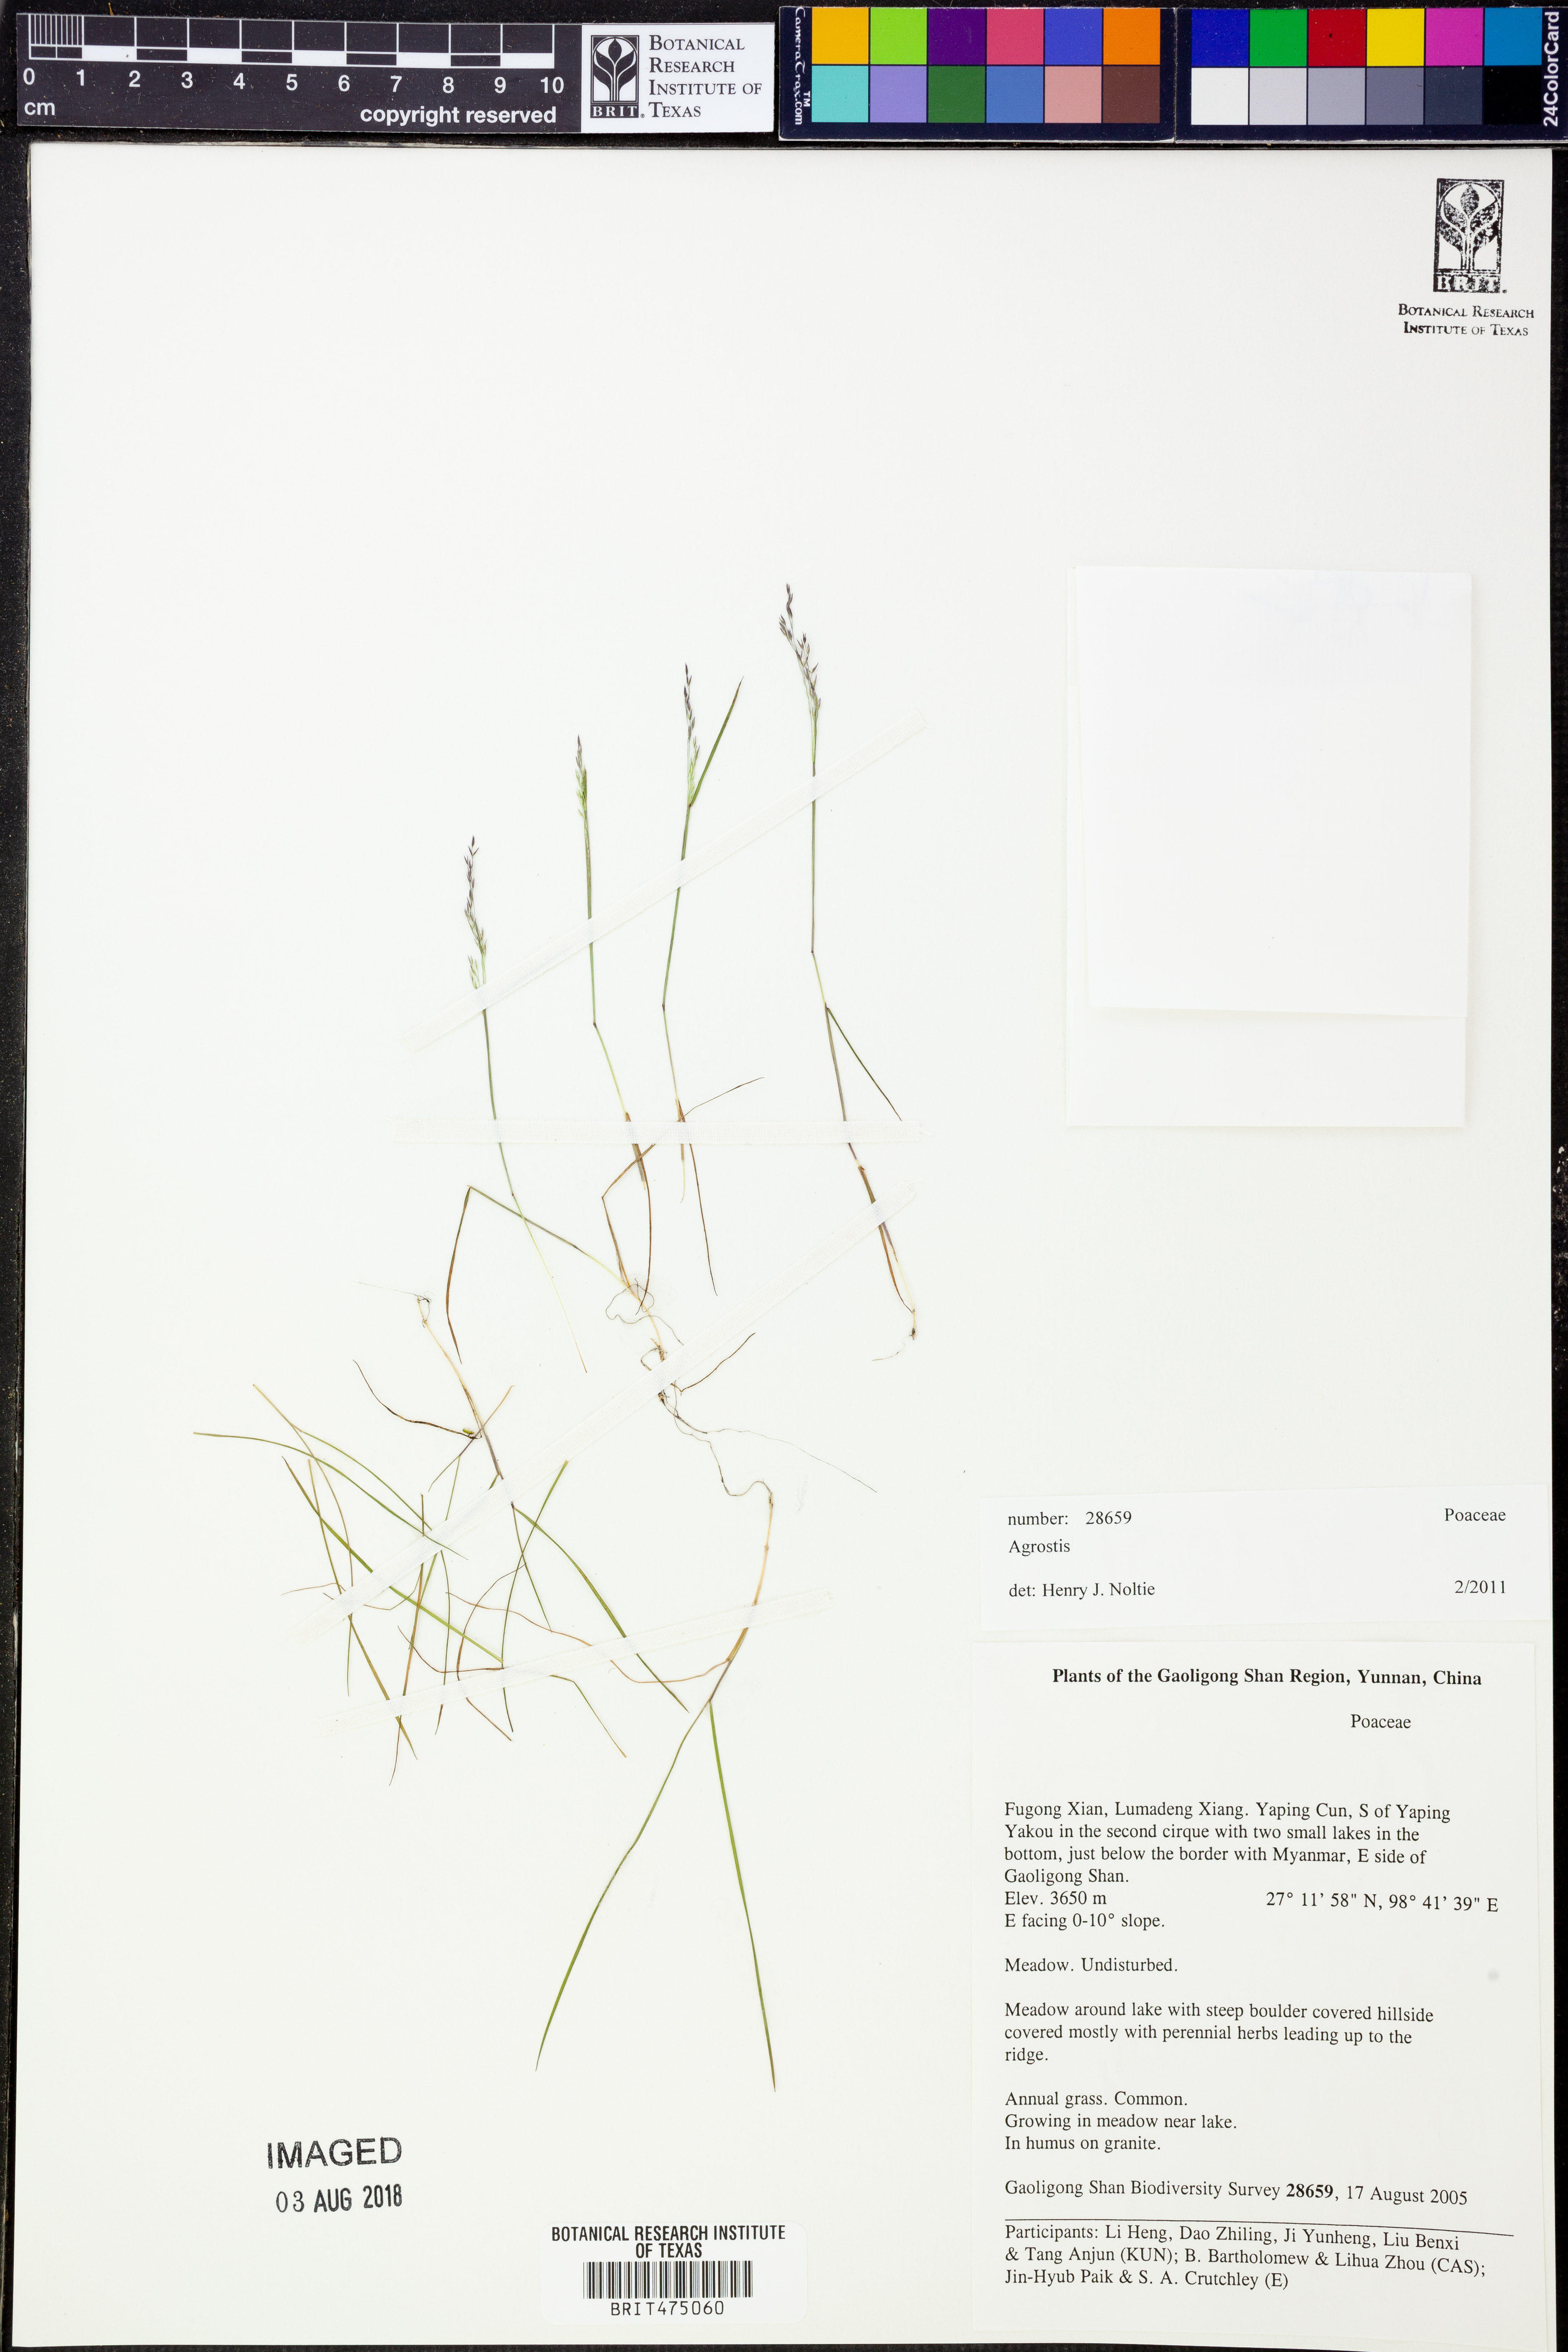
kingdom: Plantae
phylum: Tracheophyta
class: Liliopsida
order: Poales
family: Poaceae
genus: Agrostis
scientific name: Agrostis
